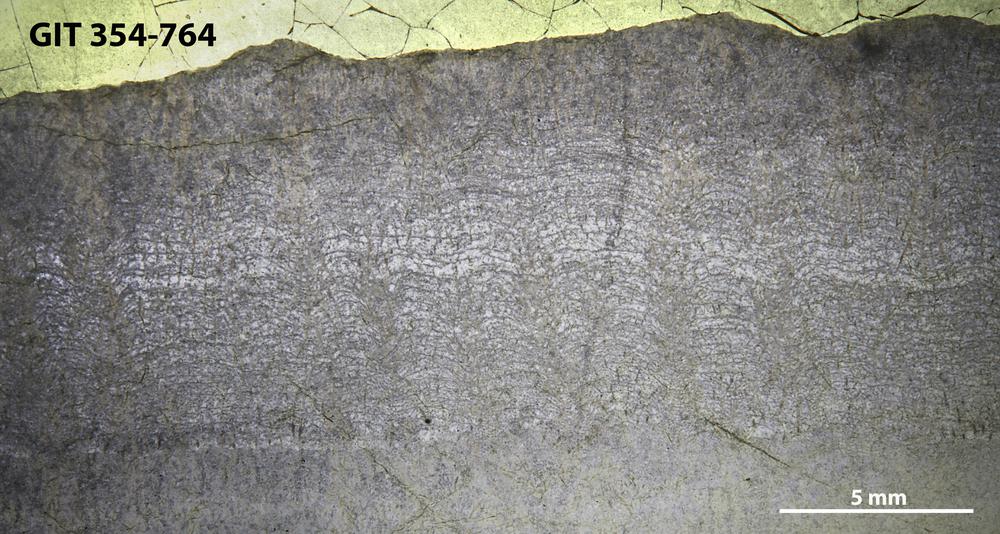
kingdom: Animalia
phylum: Porifera
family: Pseudolabechiidae
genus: Pseudolabechia
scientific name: Pseudolabechia
